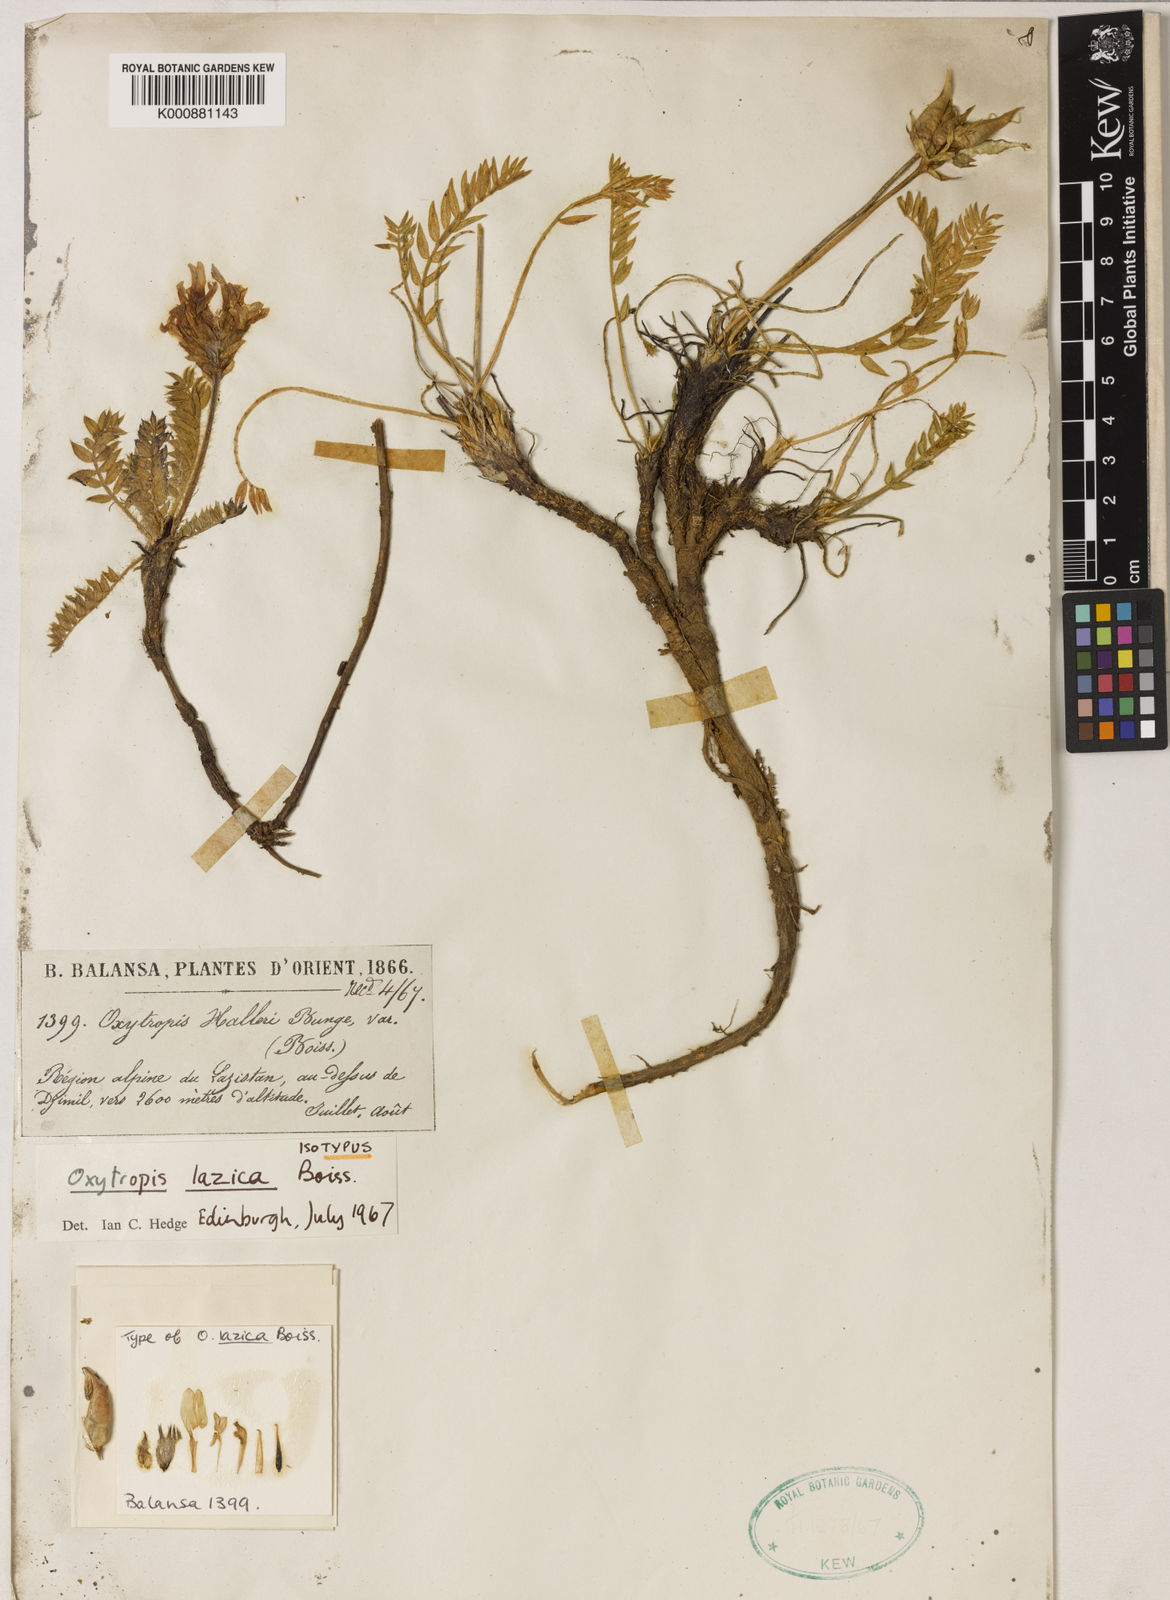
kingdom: Plantae
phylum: Tracheophyta
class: Magnoliopsida
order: Fabales
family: Fabaceae
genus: Oxytropis
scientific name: Oxytropis lazica
